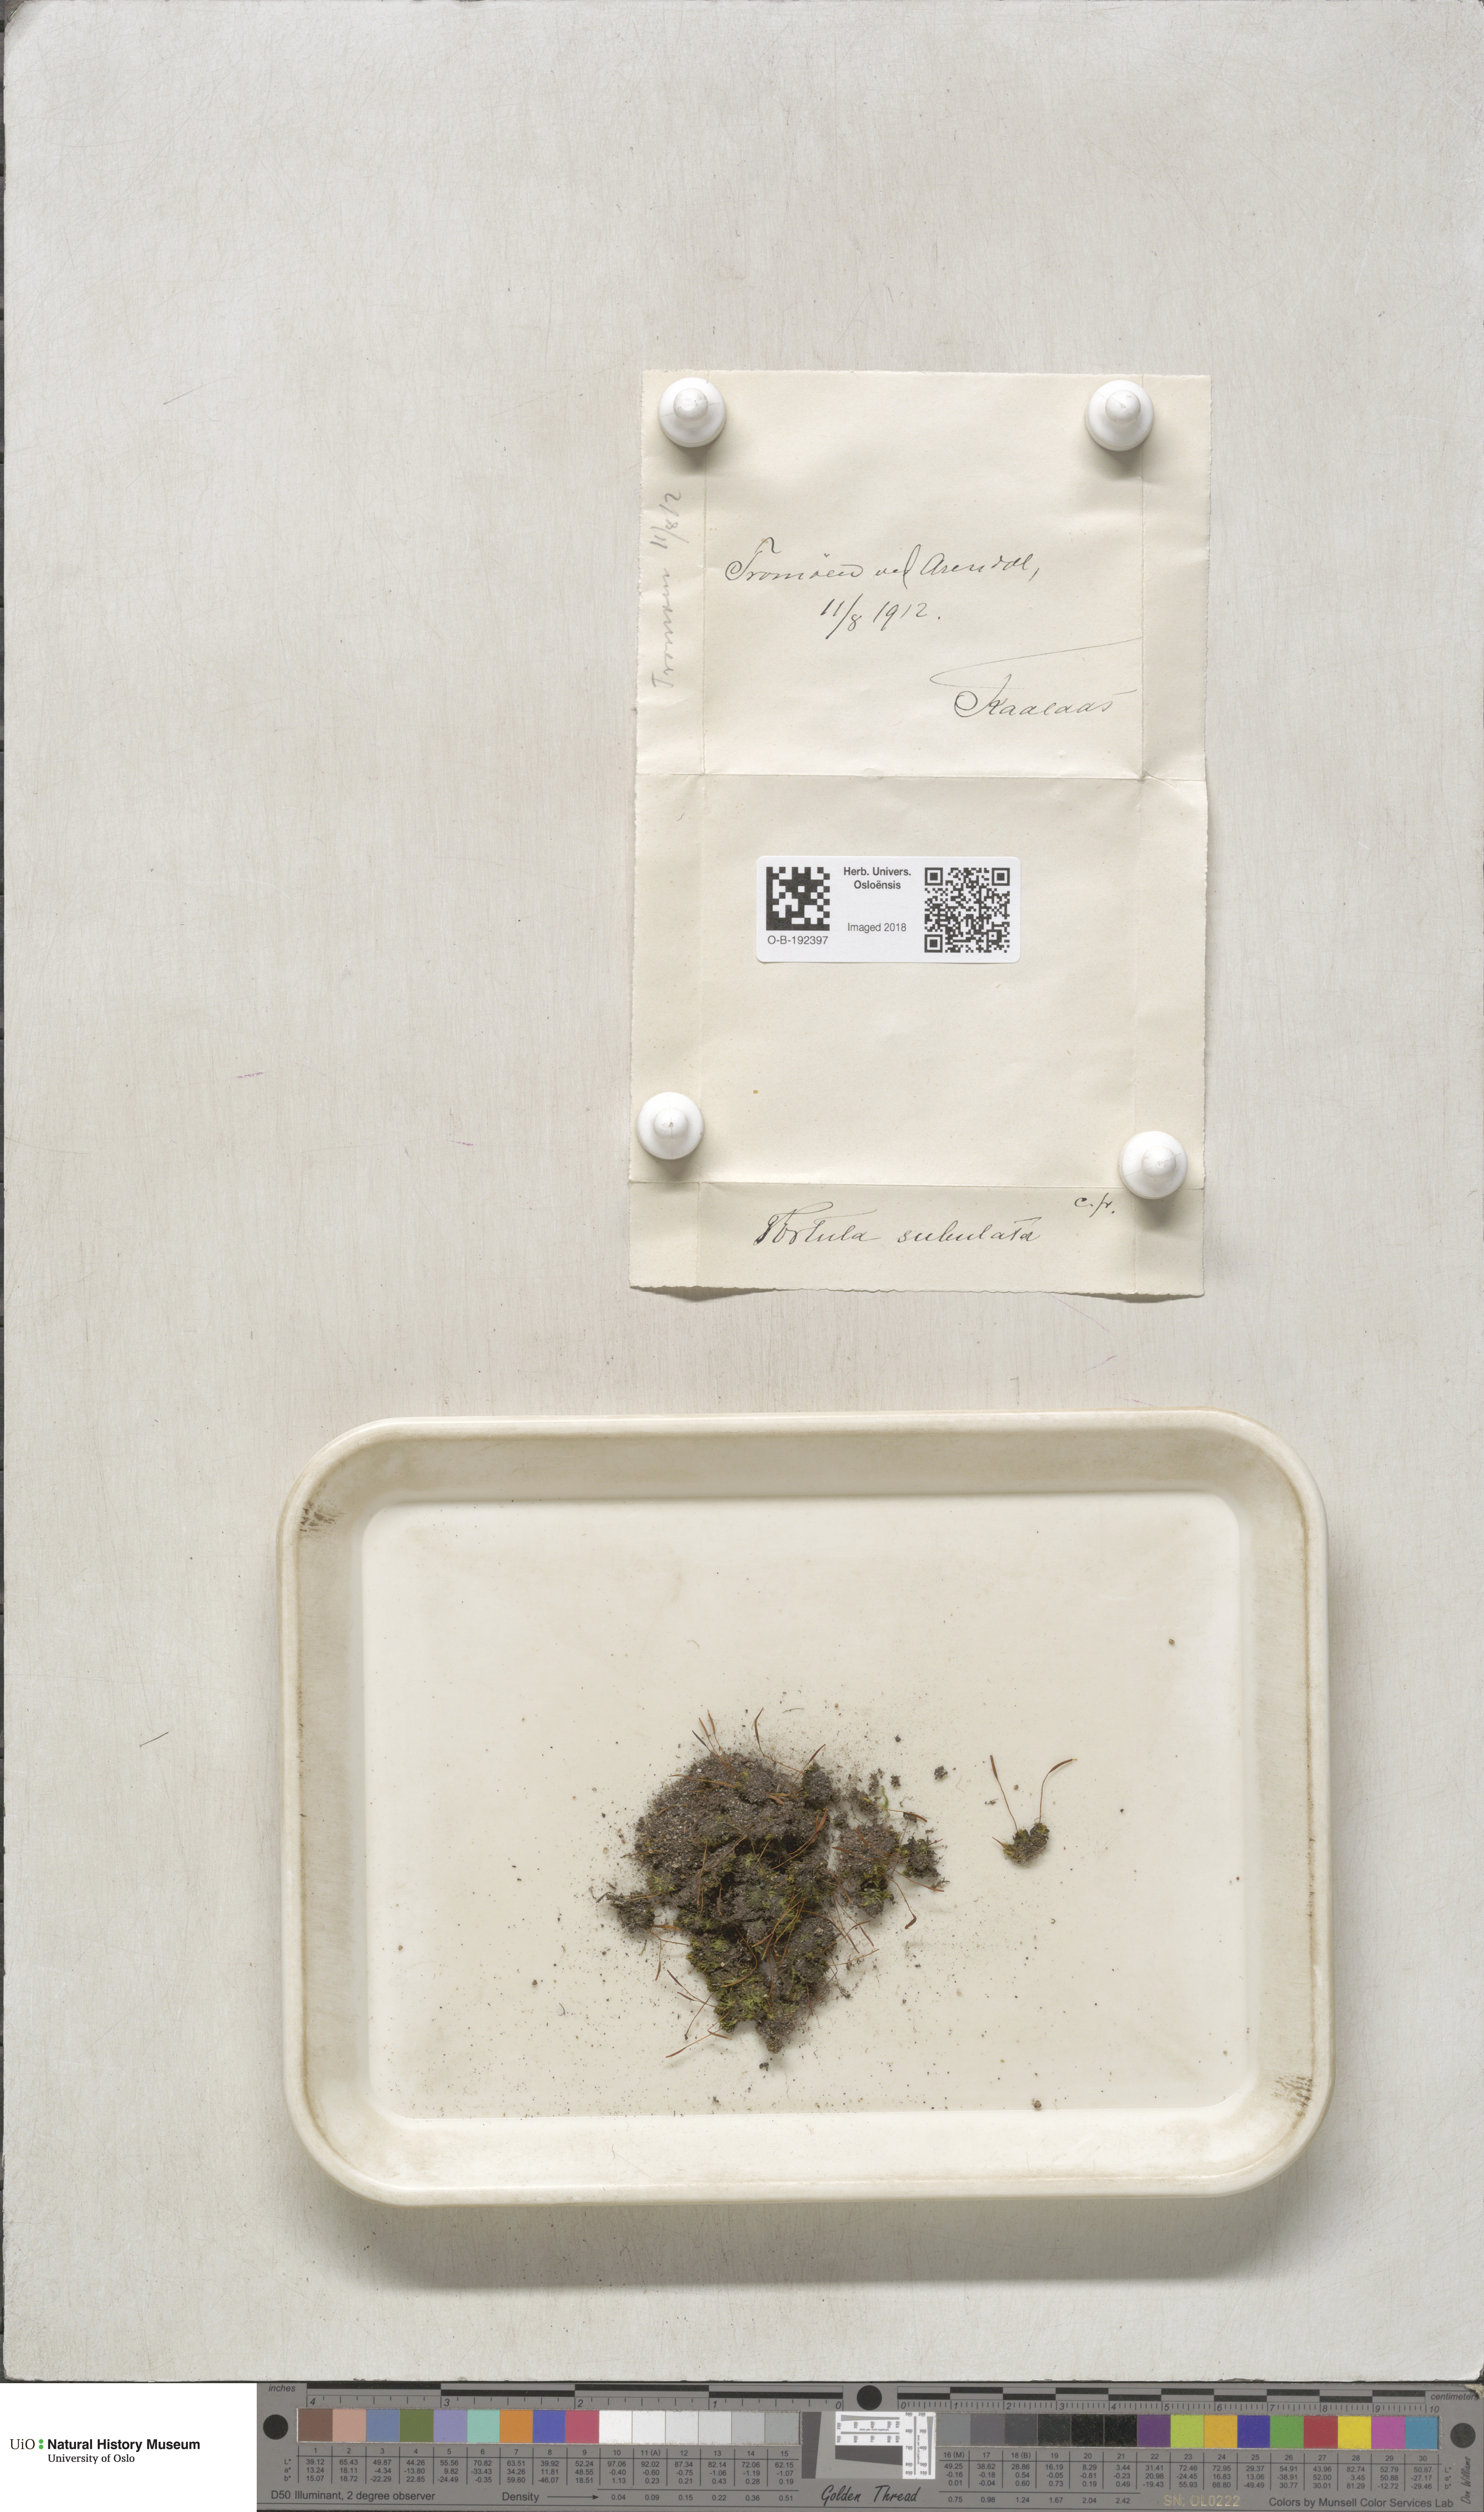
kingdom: Plantae
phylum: Bryophyta
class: Bryopsida
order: Pottiales
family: Pottiaceae
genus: Tortula
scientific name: Tortula subulata
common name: Upright screw-moss
